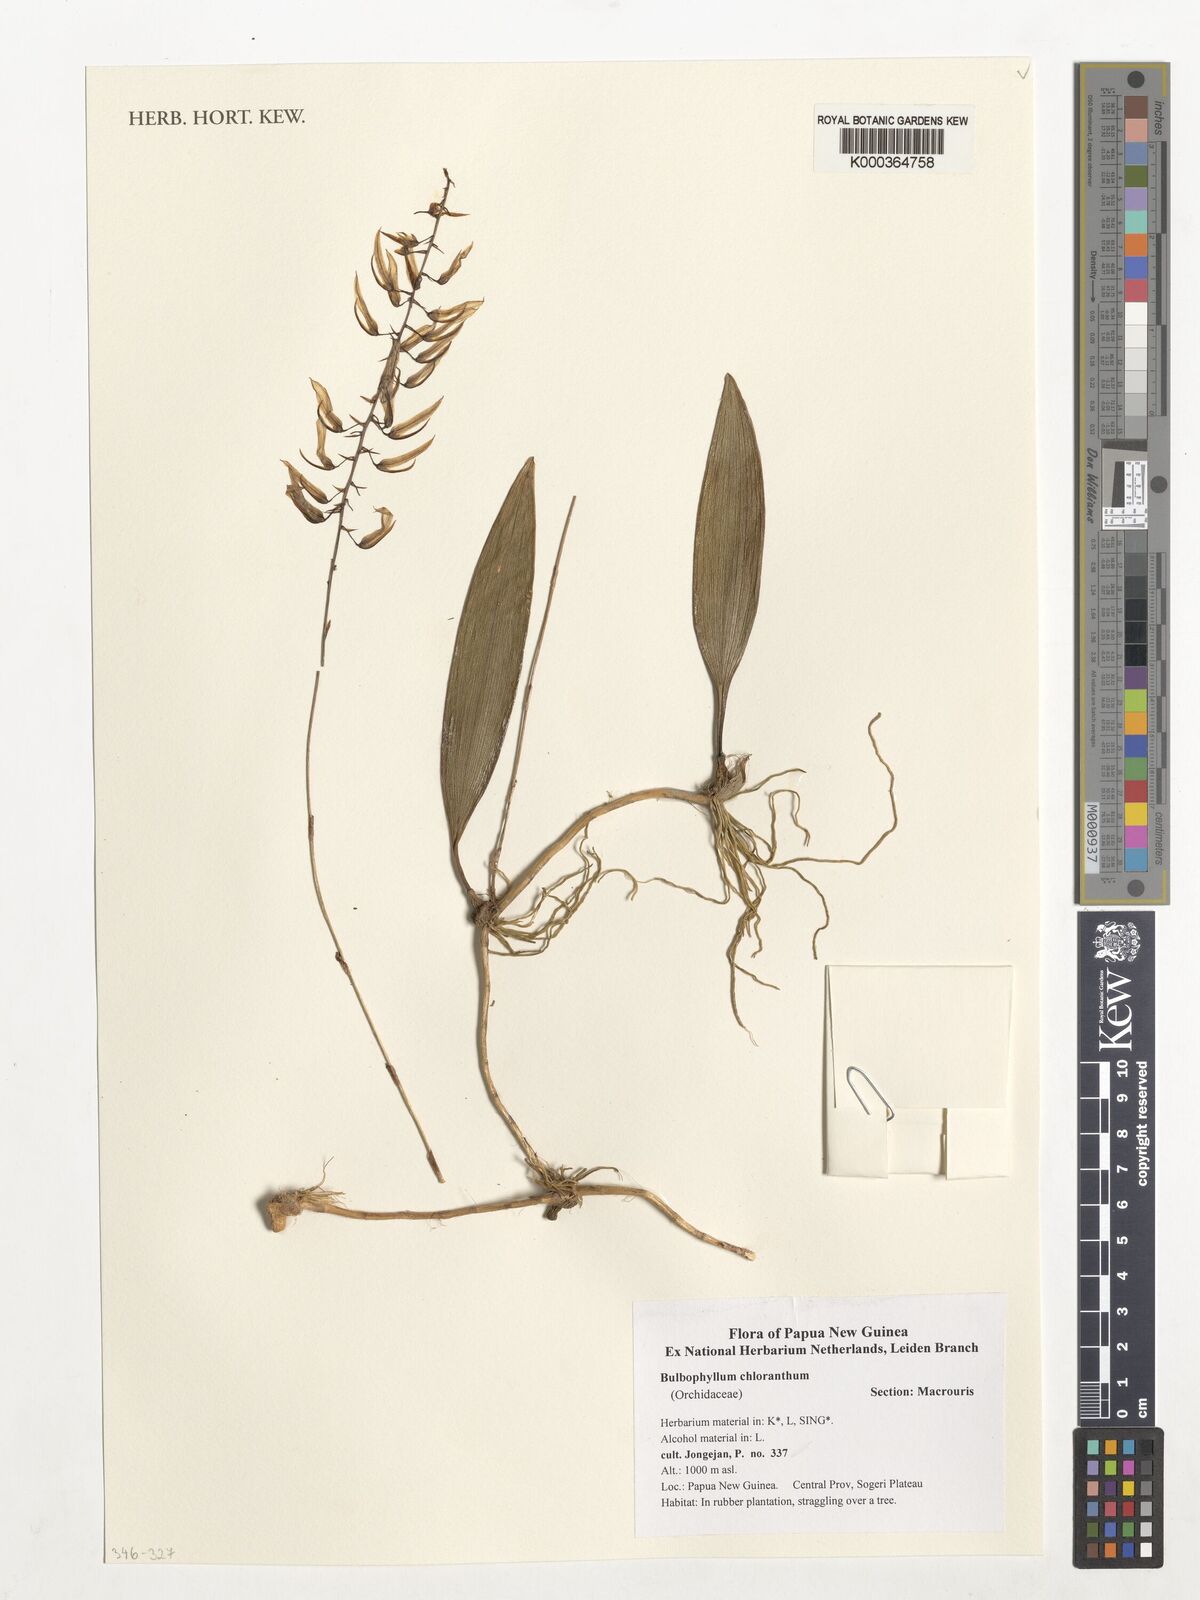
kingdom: Plantae
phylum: Tracheophyta
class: Liliopsida
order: Asparagales
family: Orchidaceae
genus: Bulbophyllum
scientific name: Bulbophyllum chloranthum
